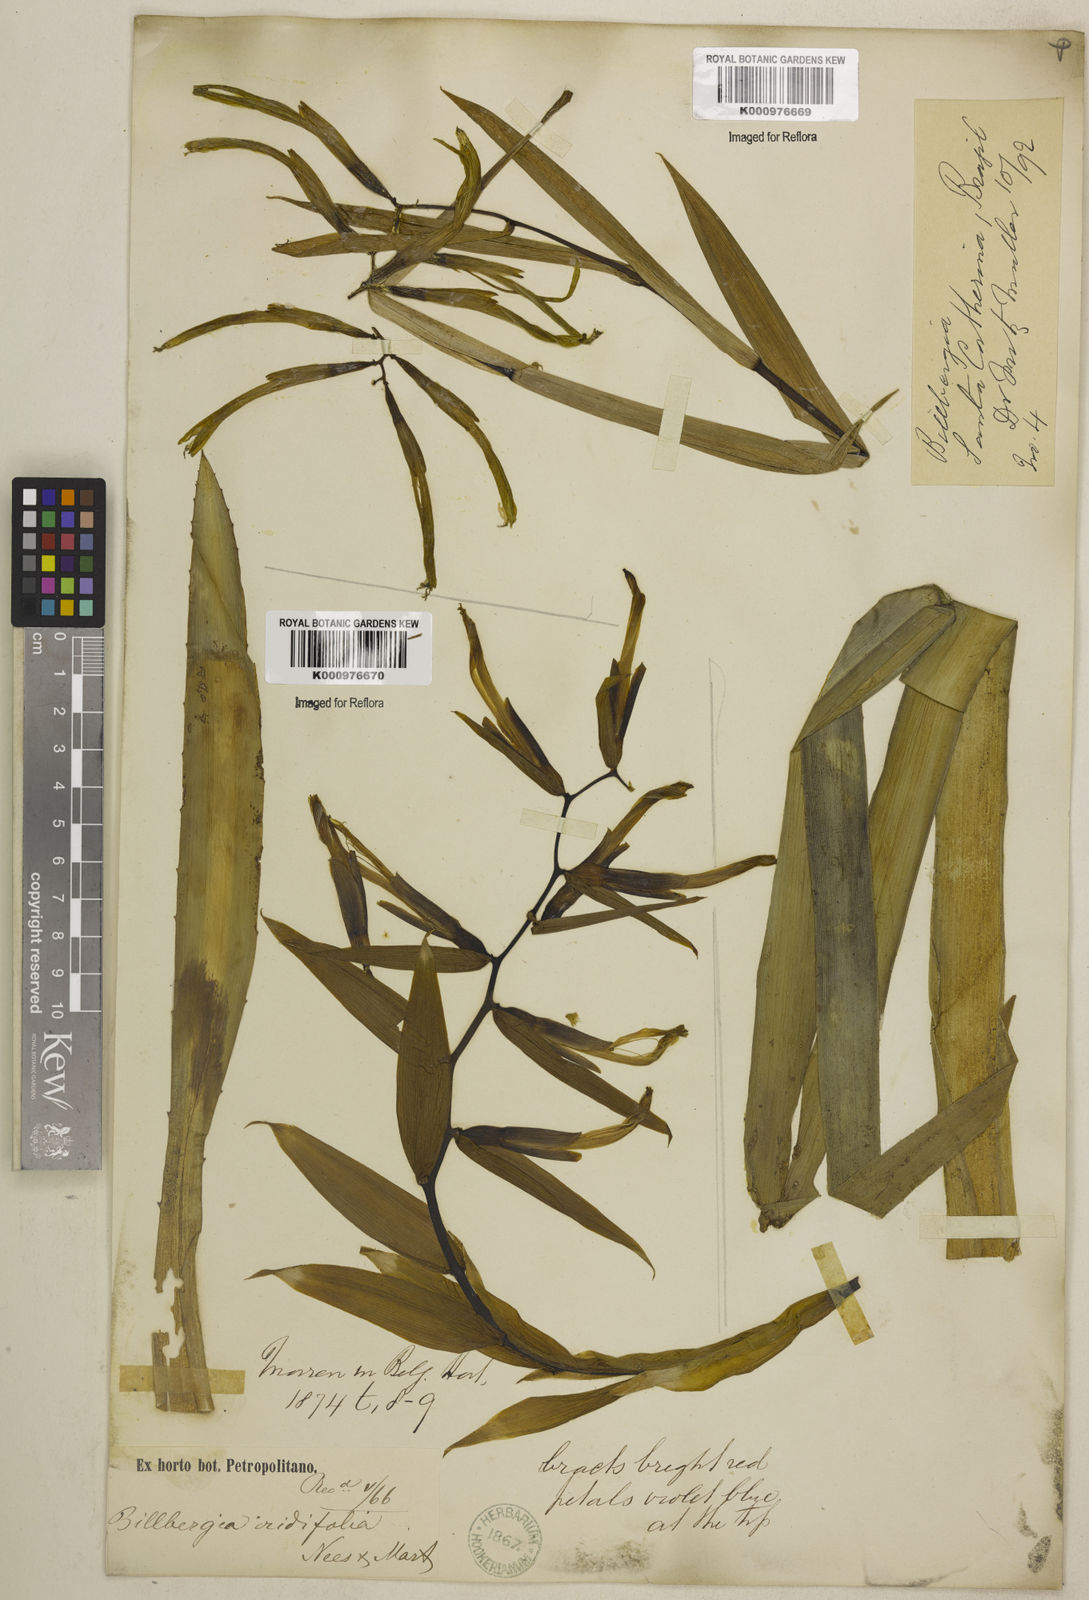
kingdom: Plantae
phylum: Tracheophyta
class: Liliopsida
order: Poales
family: Bromeliaceae
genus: Billbergia
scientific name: Billbergia iridifolia
